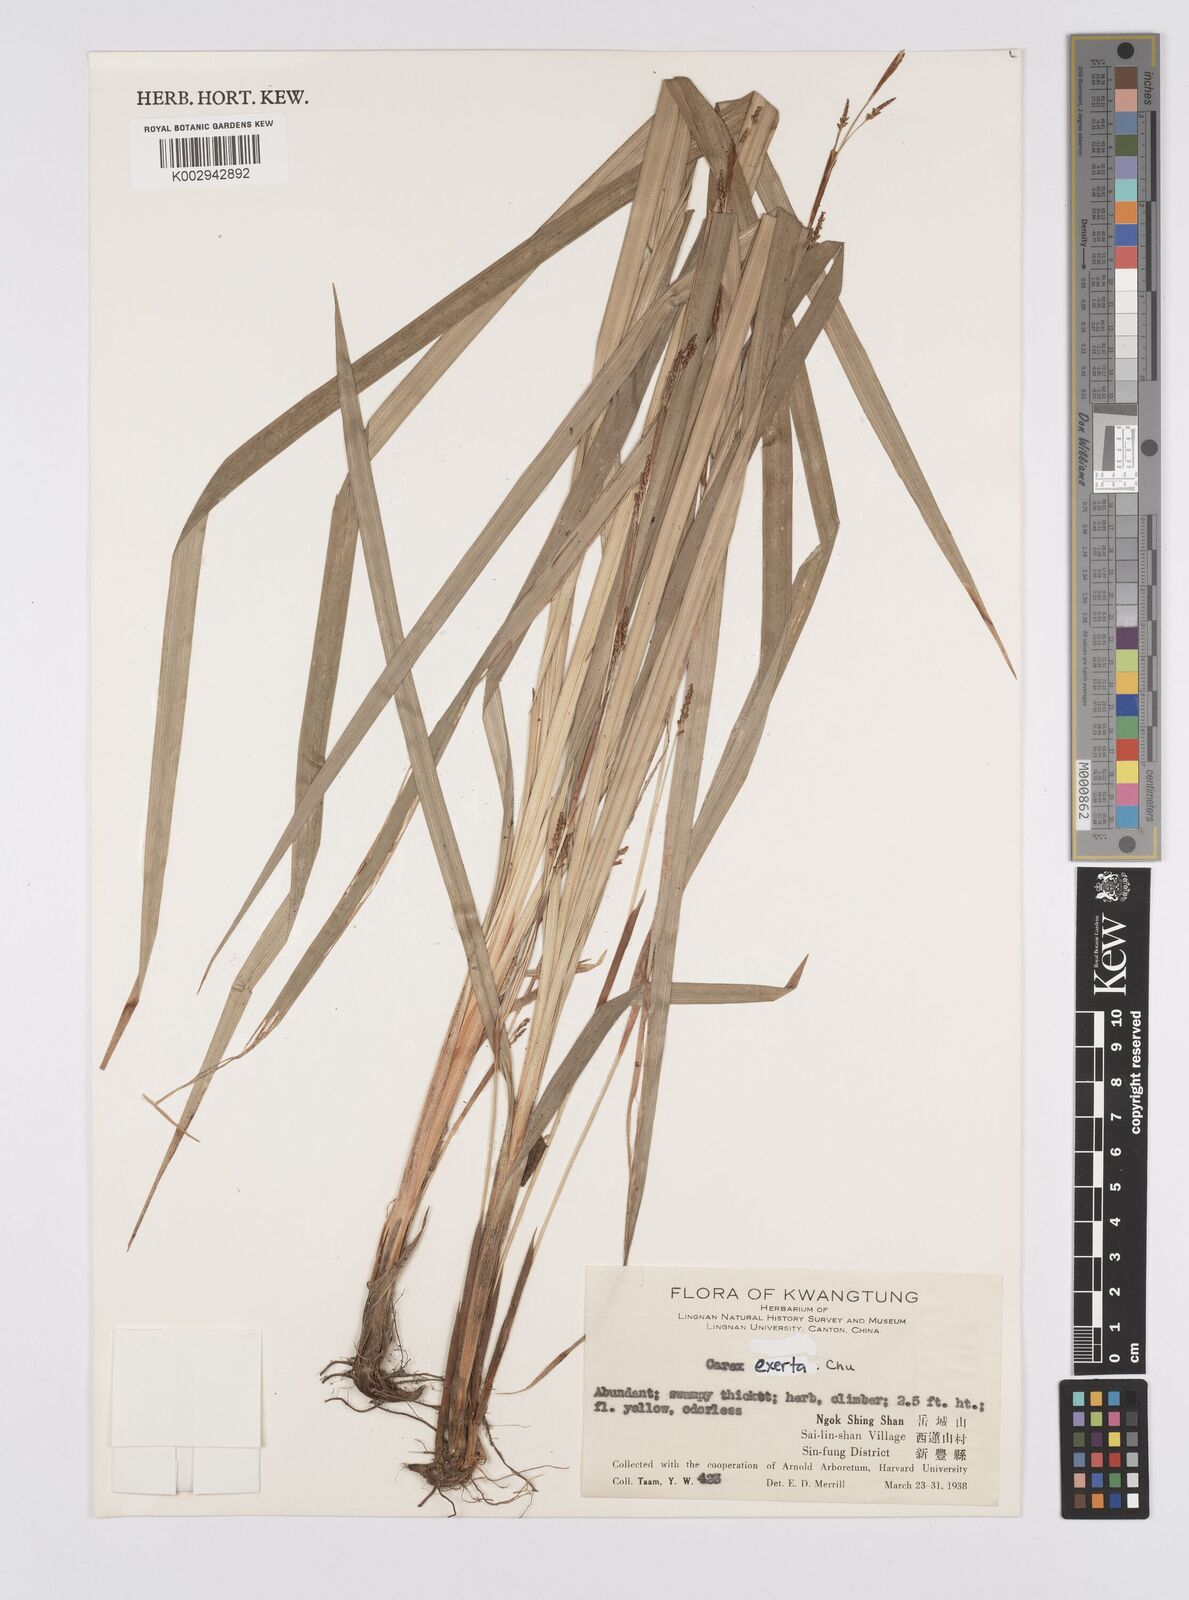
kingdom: Plantae
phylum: Tracheophyta
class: Liliopsida
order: Poales
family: Cyperaceae
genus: Carex
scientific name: Carex glossostigma
